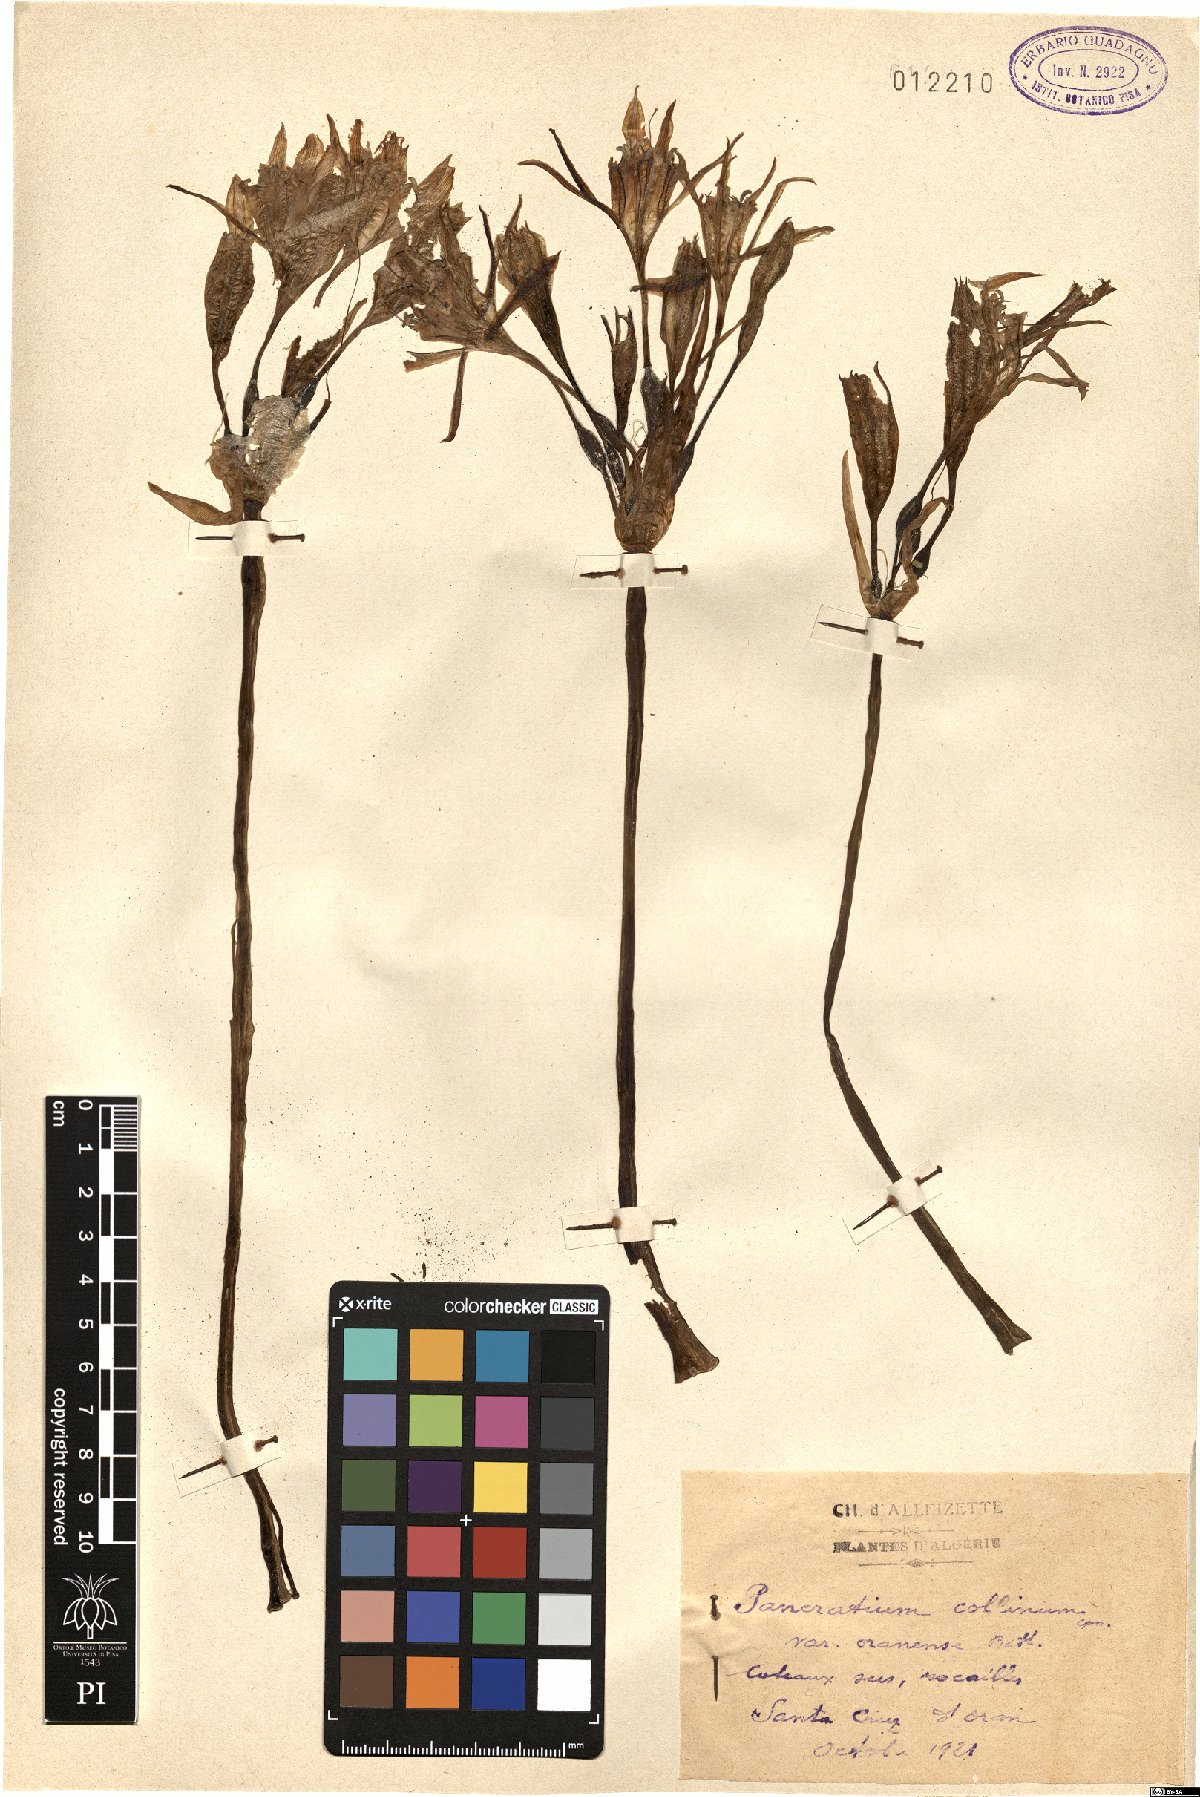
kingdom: Plantae
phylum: Tracheophyta
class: Liliopsida
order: Asparagales
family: Amaryllidaceae
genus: Pancratium
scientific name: Pancratium foetidum
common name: Stinking daffodil
